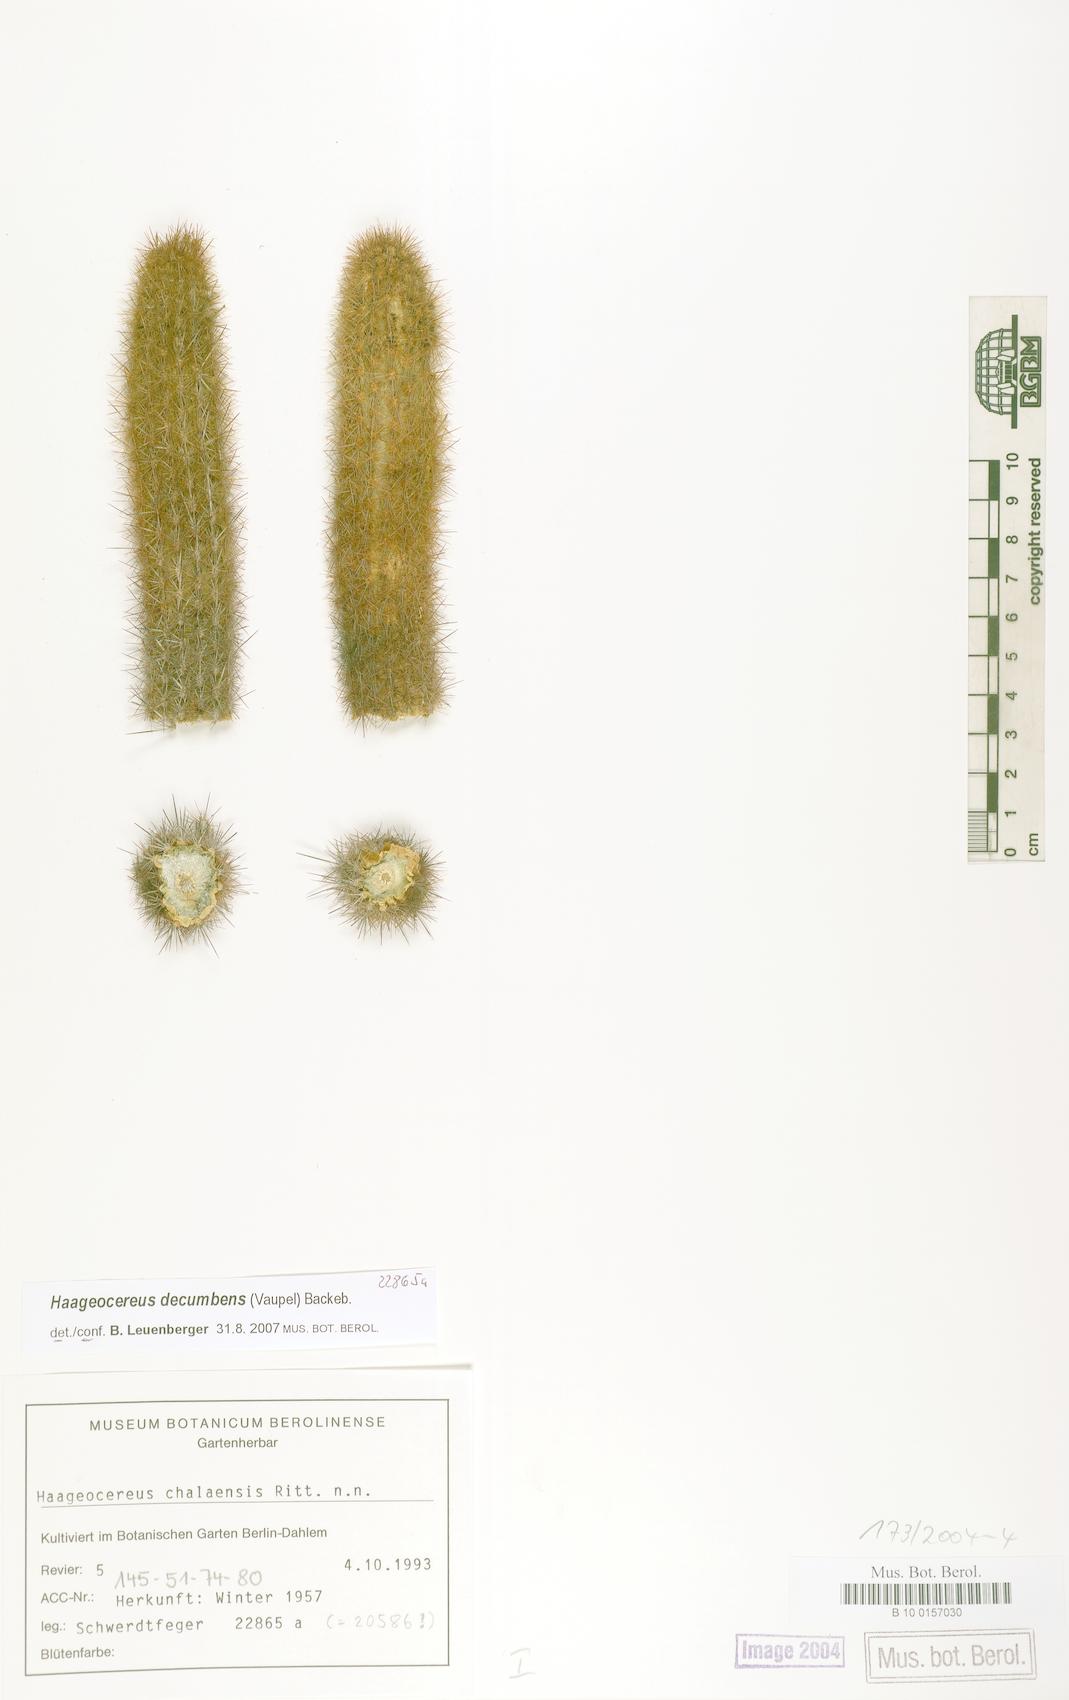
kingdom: Plantae
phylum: Tracheophyta
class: Magnoliopsida
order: Caryophyllales
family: Cactaceae
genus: Haageocereus
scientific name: Haageocereus decumbens
